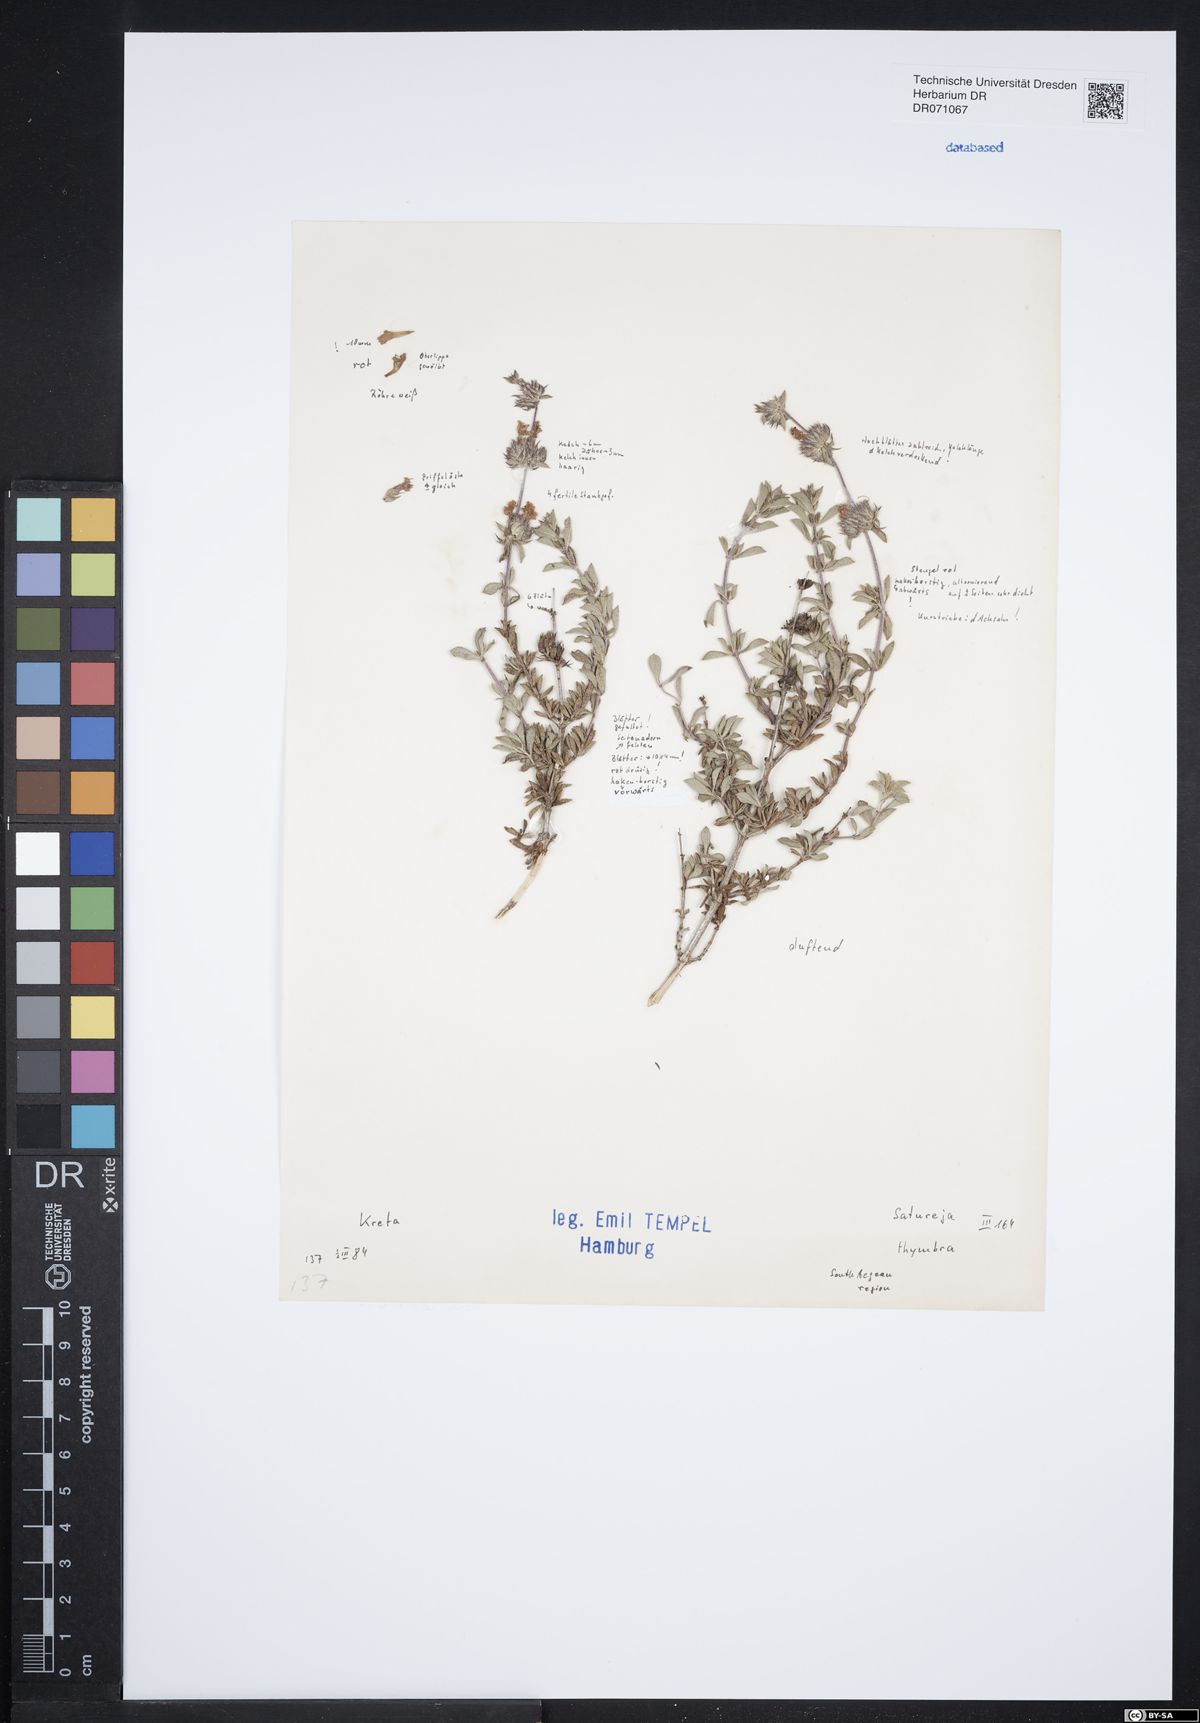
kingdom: Plantae
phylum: Tracheophyta
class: Magnoliopsida
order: Lamiales
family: Lamiaceae
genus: Satureja
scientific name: Satureja thymbra
